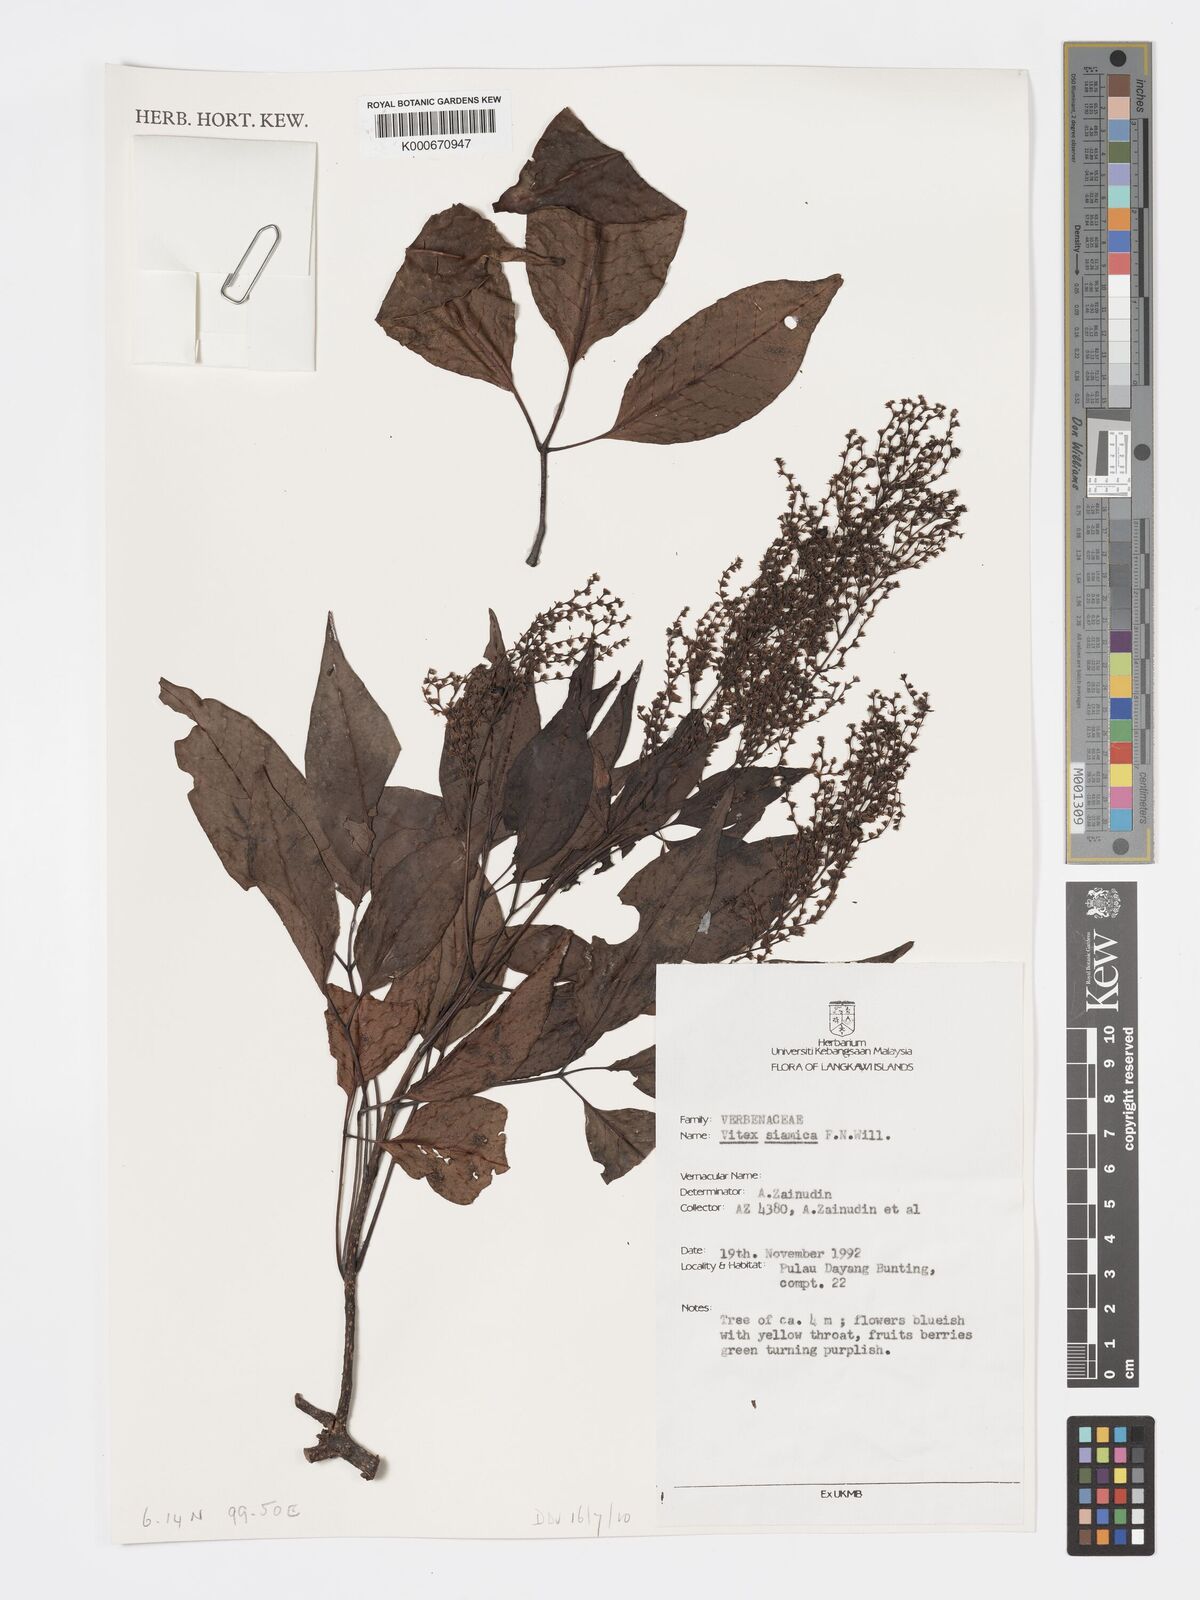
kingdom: Plantae
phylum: Tracheophyta
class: Magnoliopsida
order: Lamiales
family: Lamiaceae
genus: Vitex
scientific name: Vitex siamica
